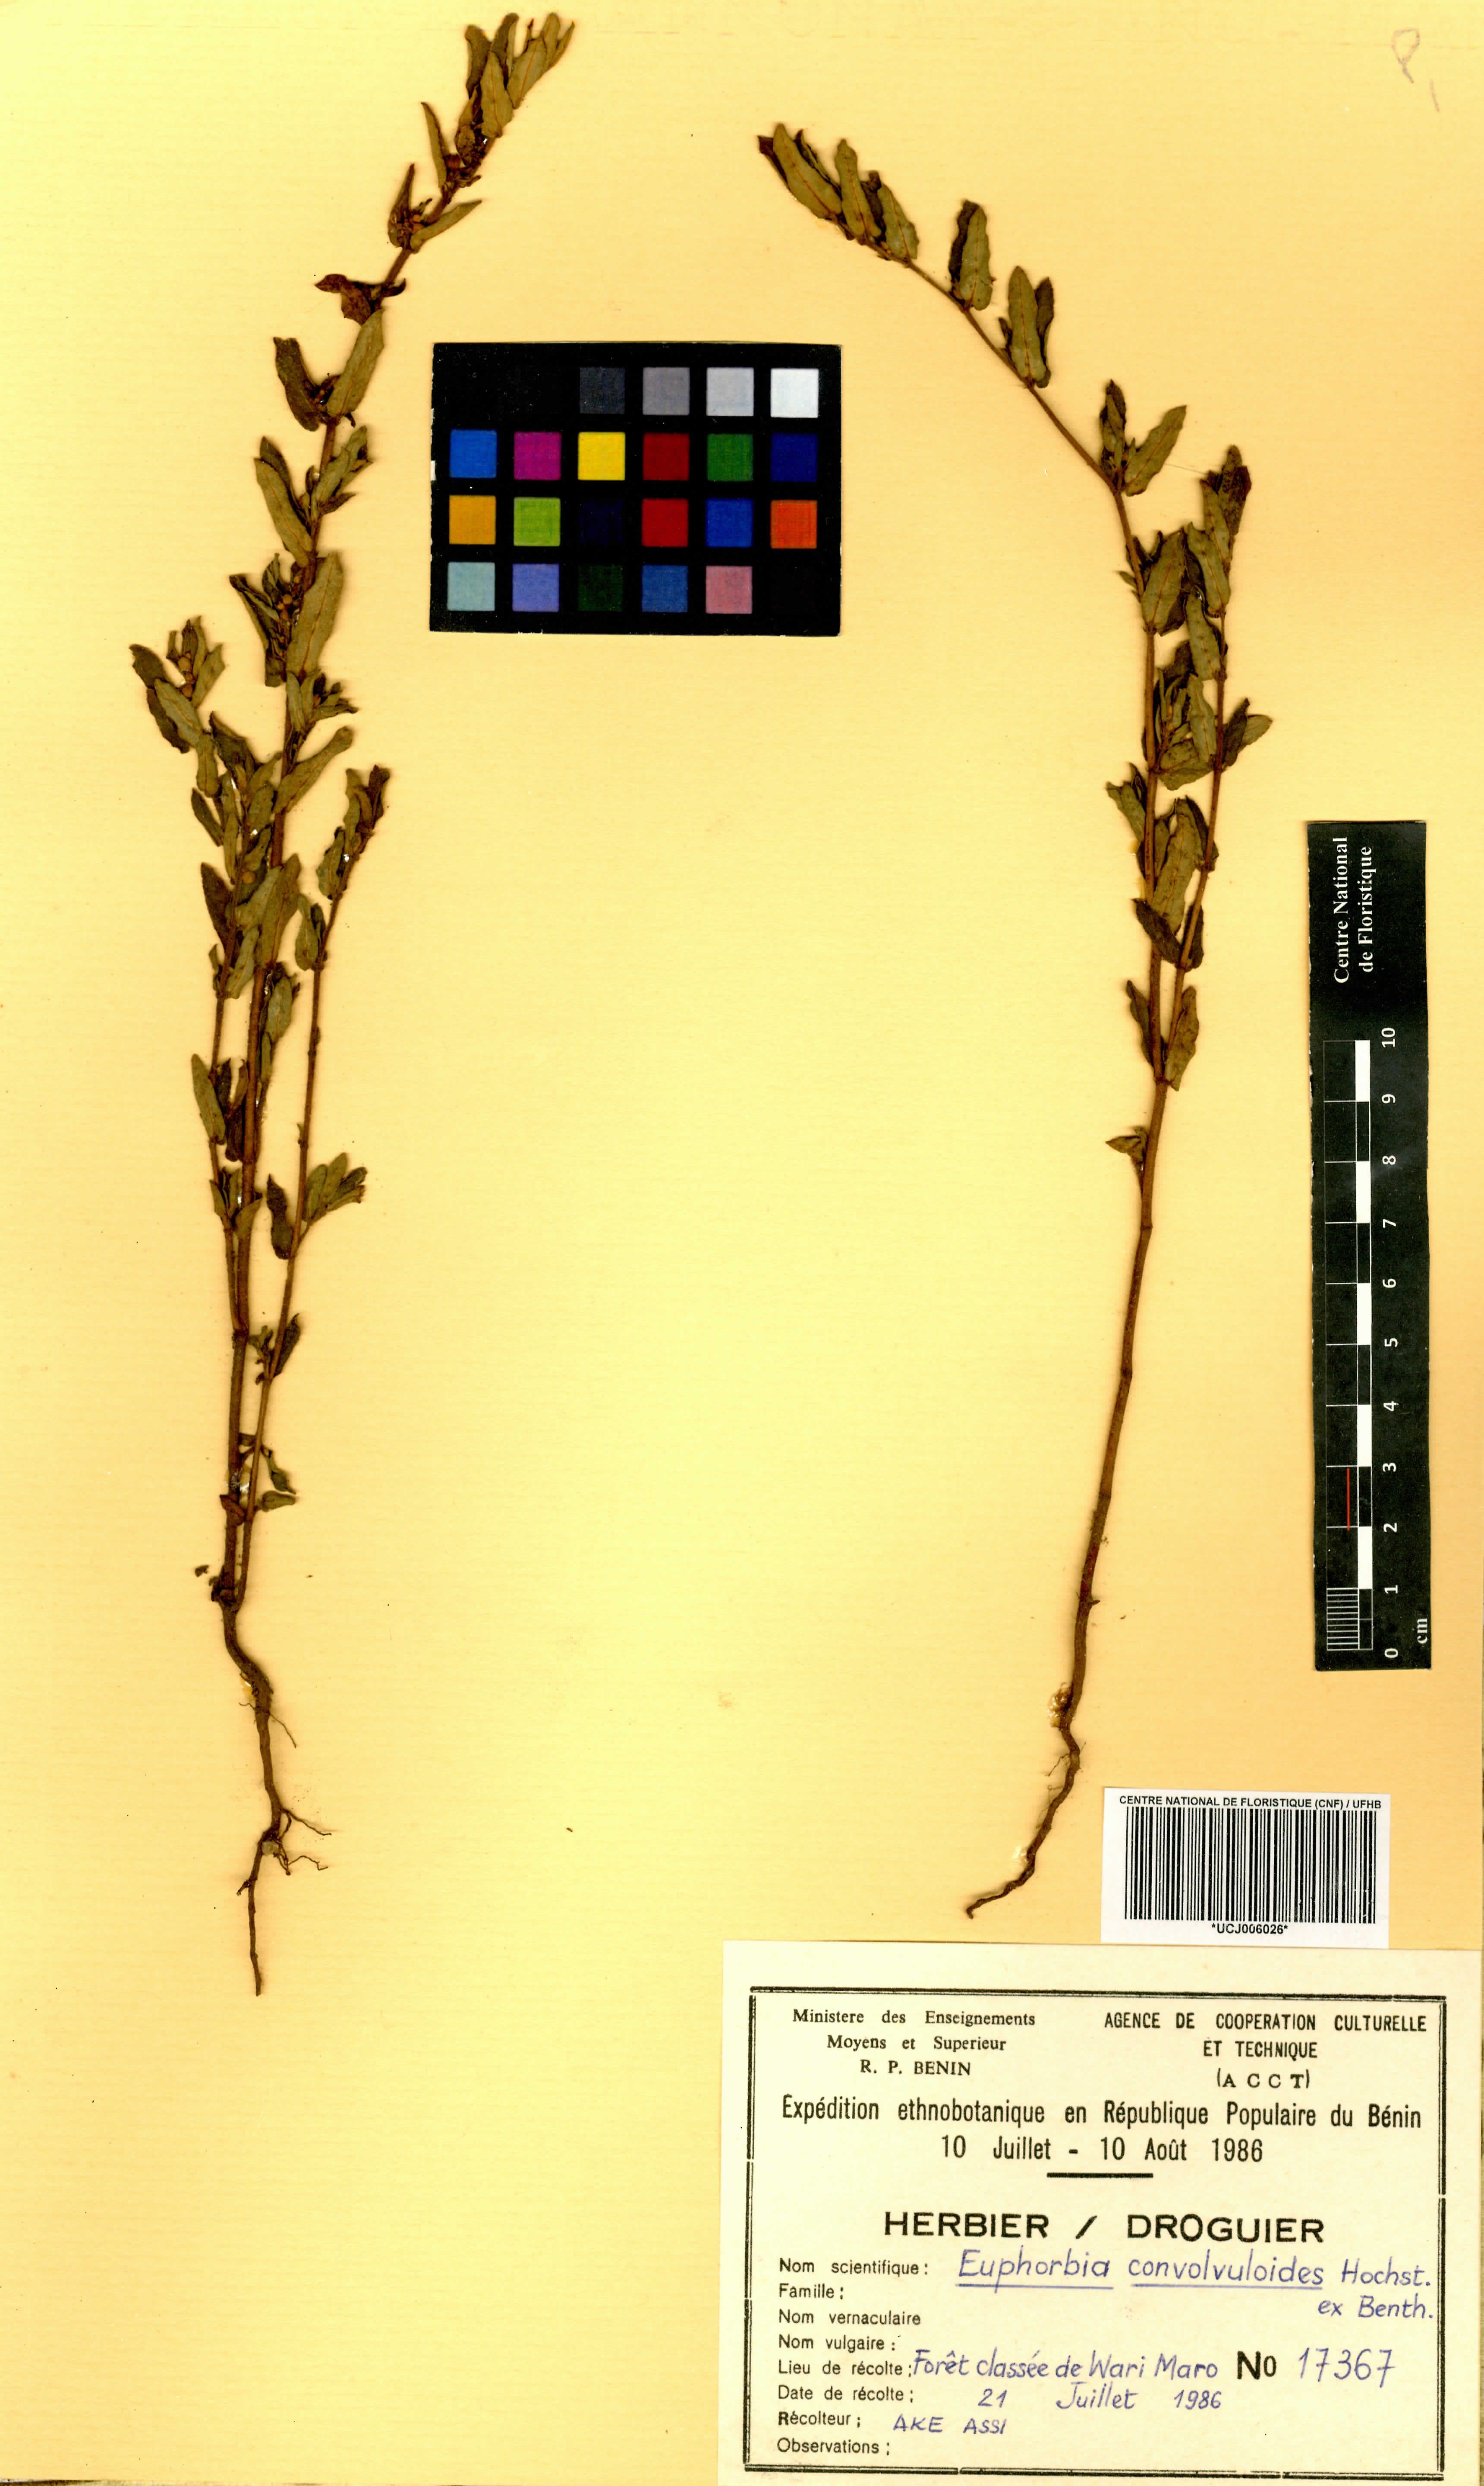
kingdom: Plantae
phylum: Tracheophyta
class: Magnoliopsida
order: Malpighiales
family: Euphorbiaceae
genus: Euphorbia
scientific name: Euphorbia convolvuloides
